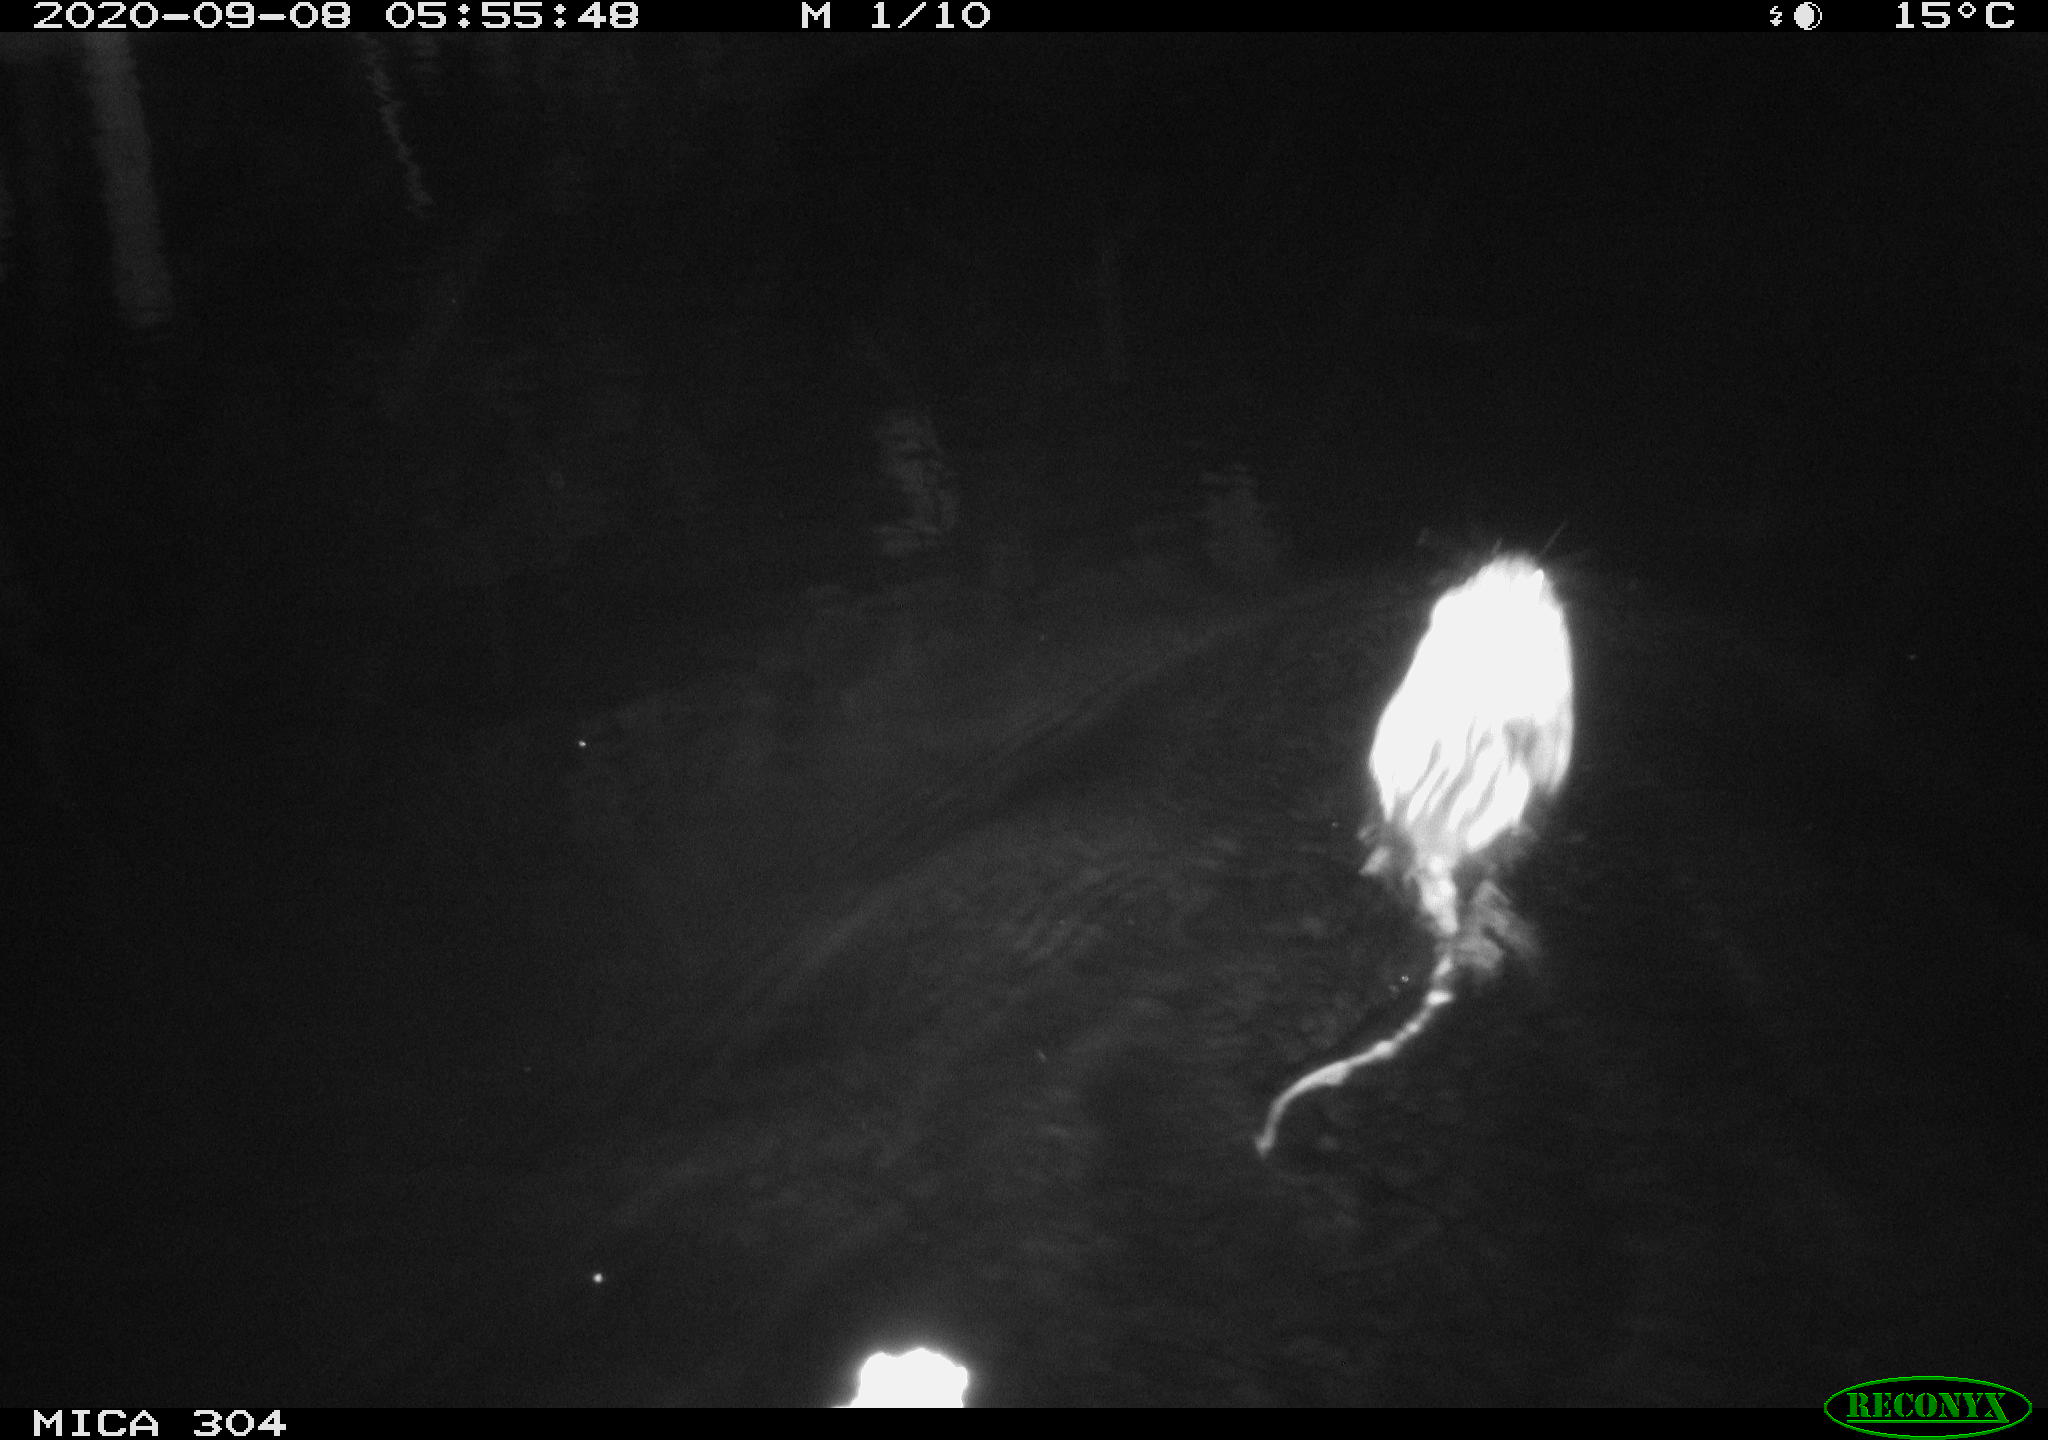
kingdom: Animalia
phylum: Chordata
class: Mammalia
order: Rodentia
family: Cricetidae
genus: Ondatra
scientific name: Ondatra zibethicus
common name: Muskrat
